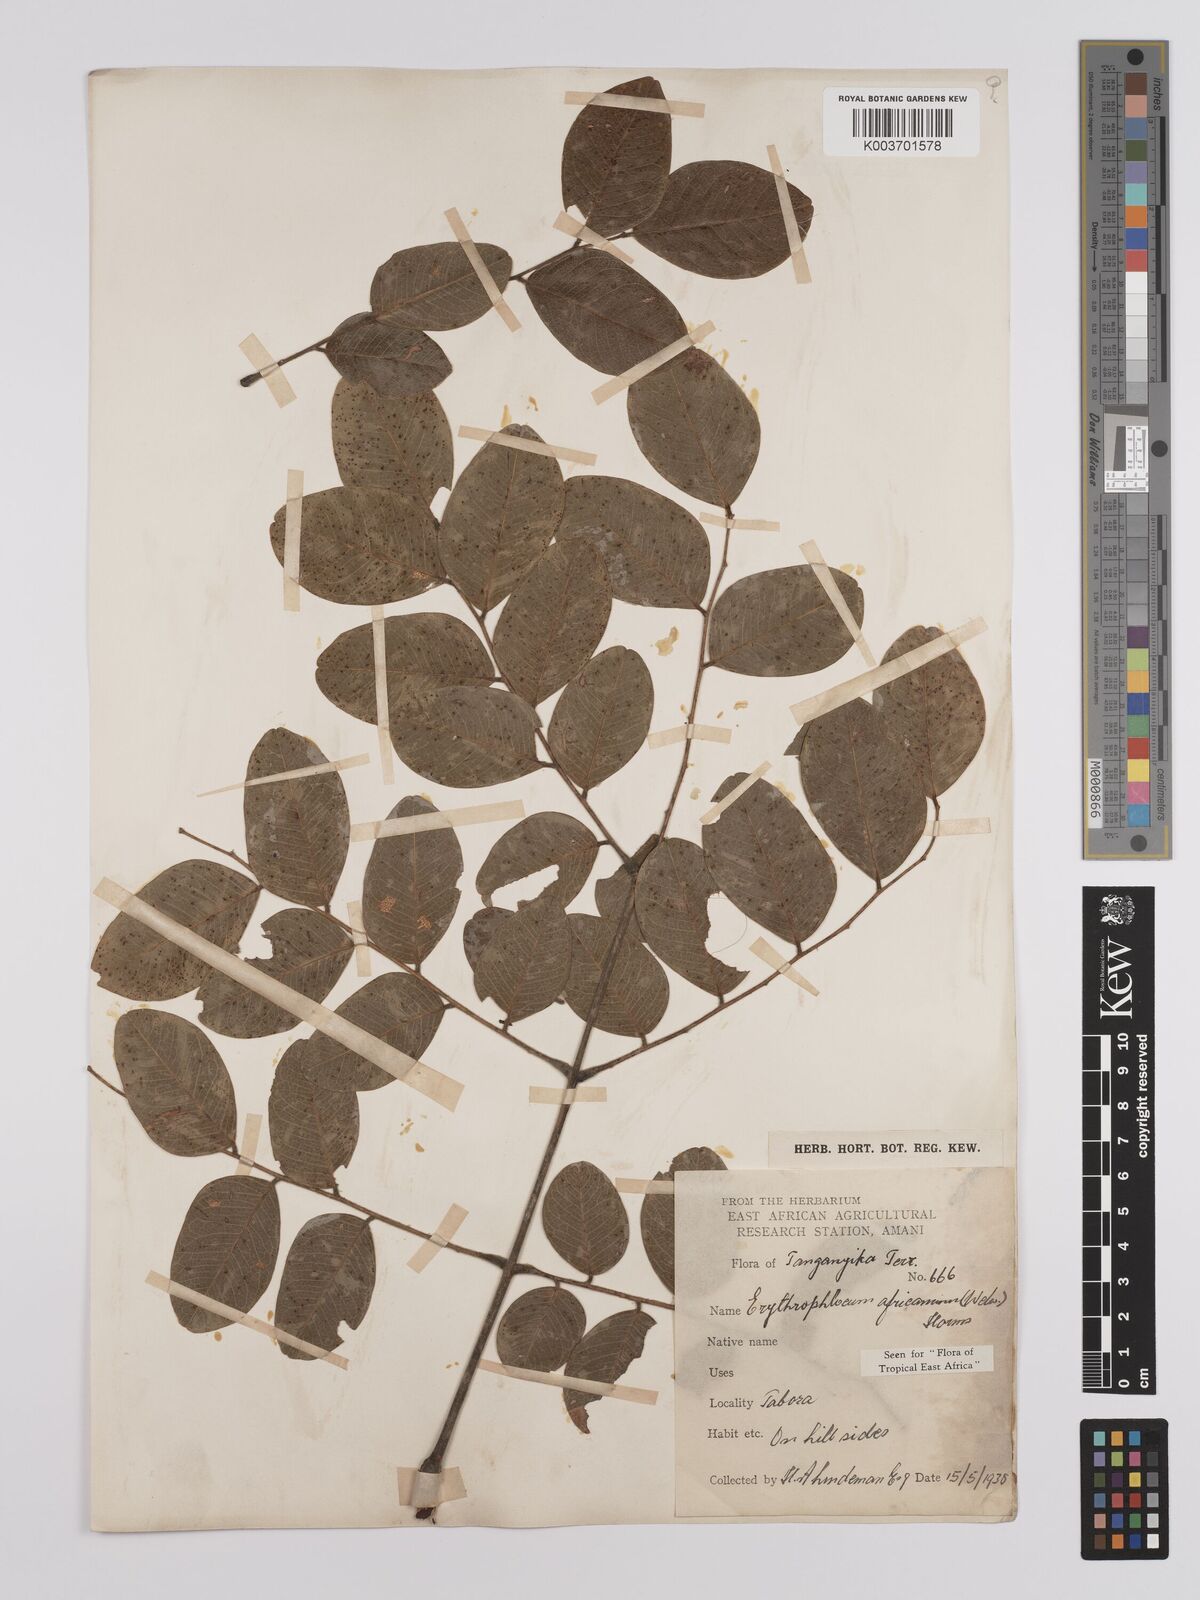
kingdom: Plantae
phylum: Tracheophyta
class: Magnoliopsida
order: Fabales
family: Fabaceae
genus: Erythrophleum
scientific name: Erythrophleum africanum
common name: African blackwood
